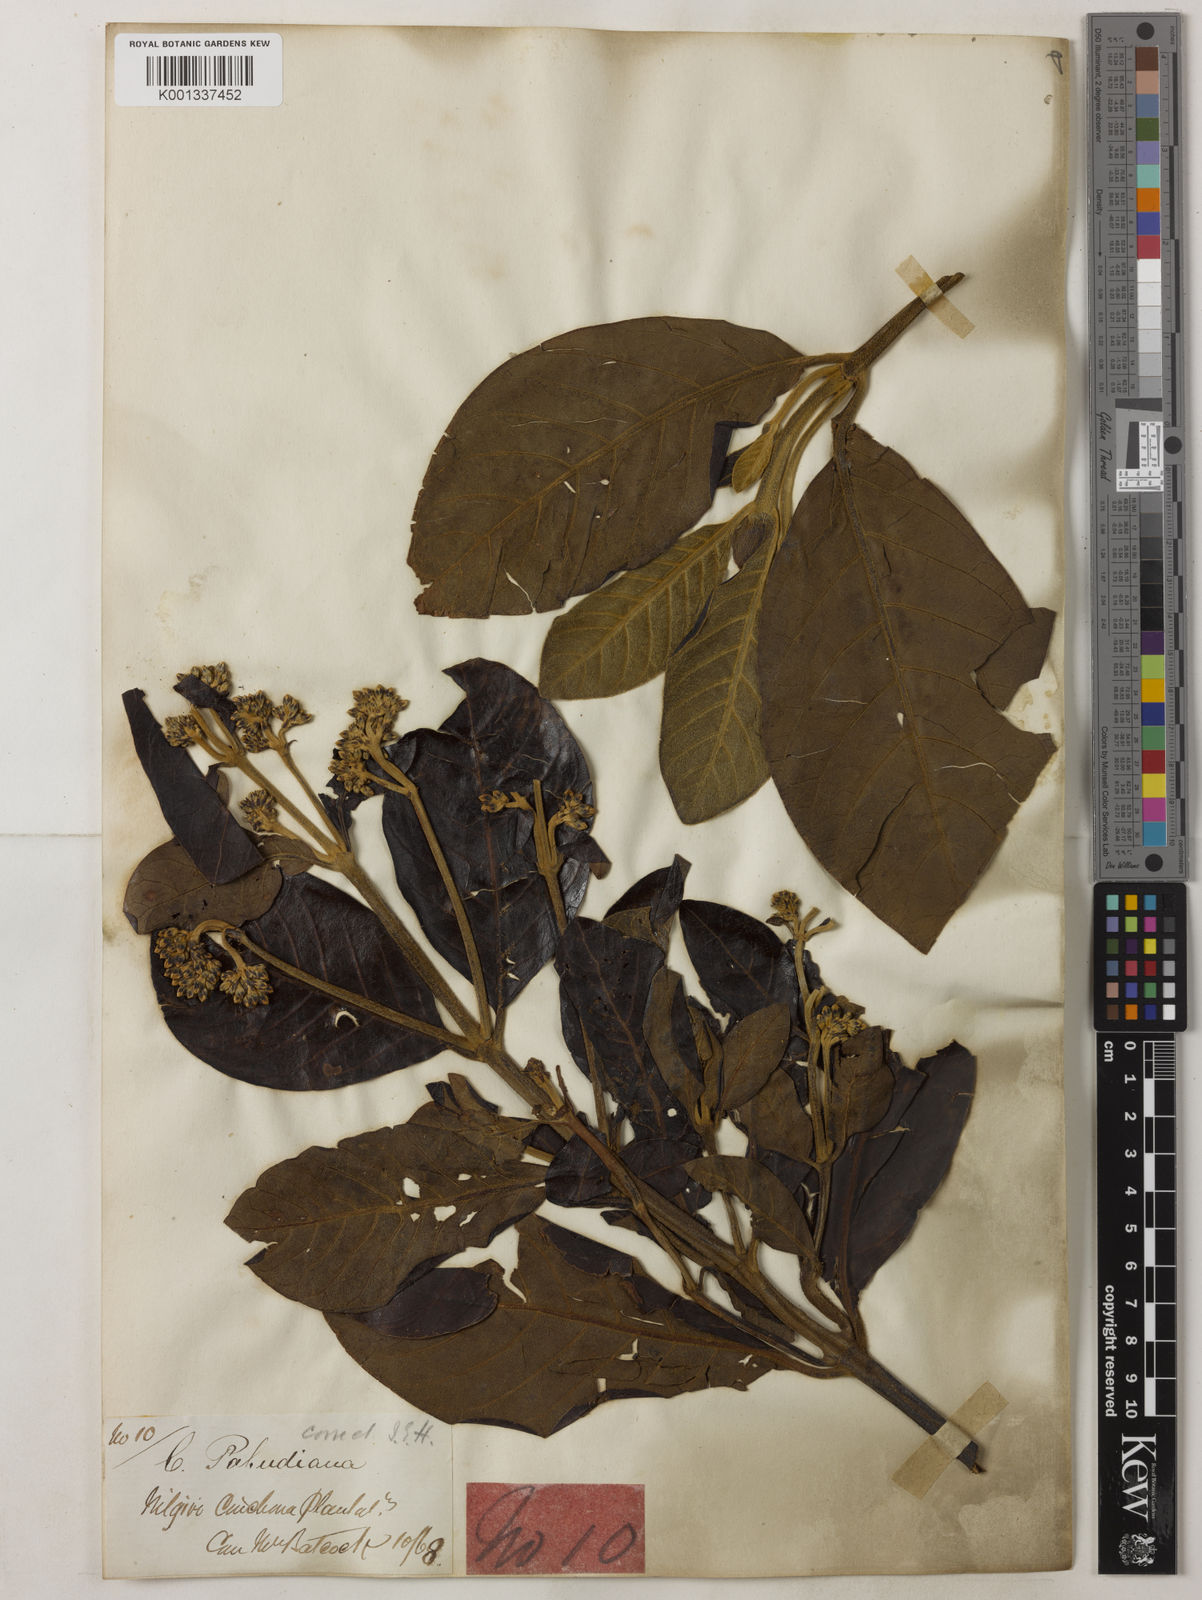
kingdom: Plantae
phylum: Tracheophyta
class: Magnoliopsida
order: Gentianales
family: Rubiaceae
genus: Cinchona
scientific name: Cinchona calisaya
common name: Ledgerbark
